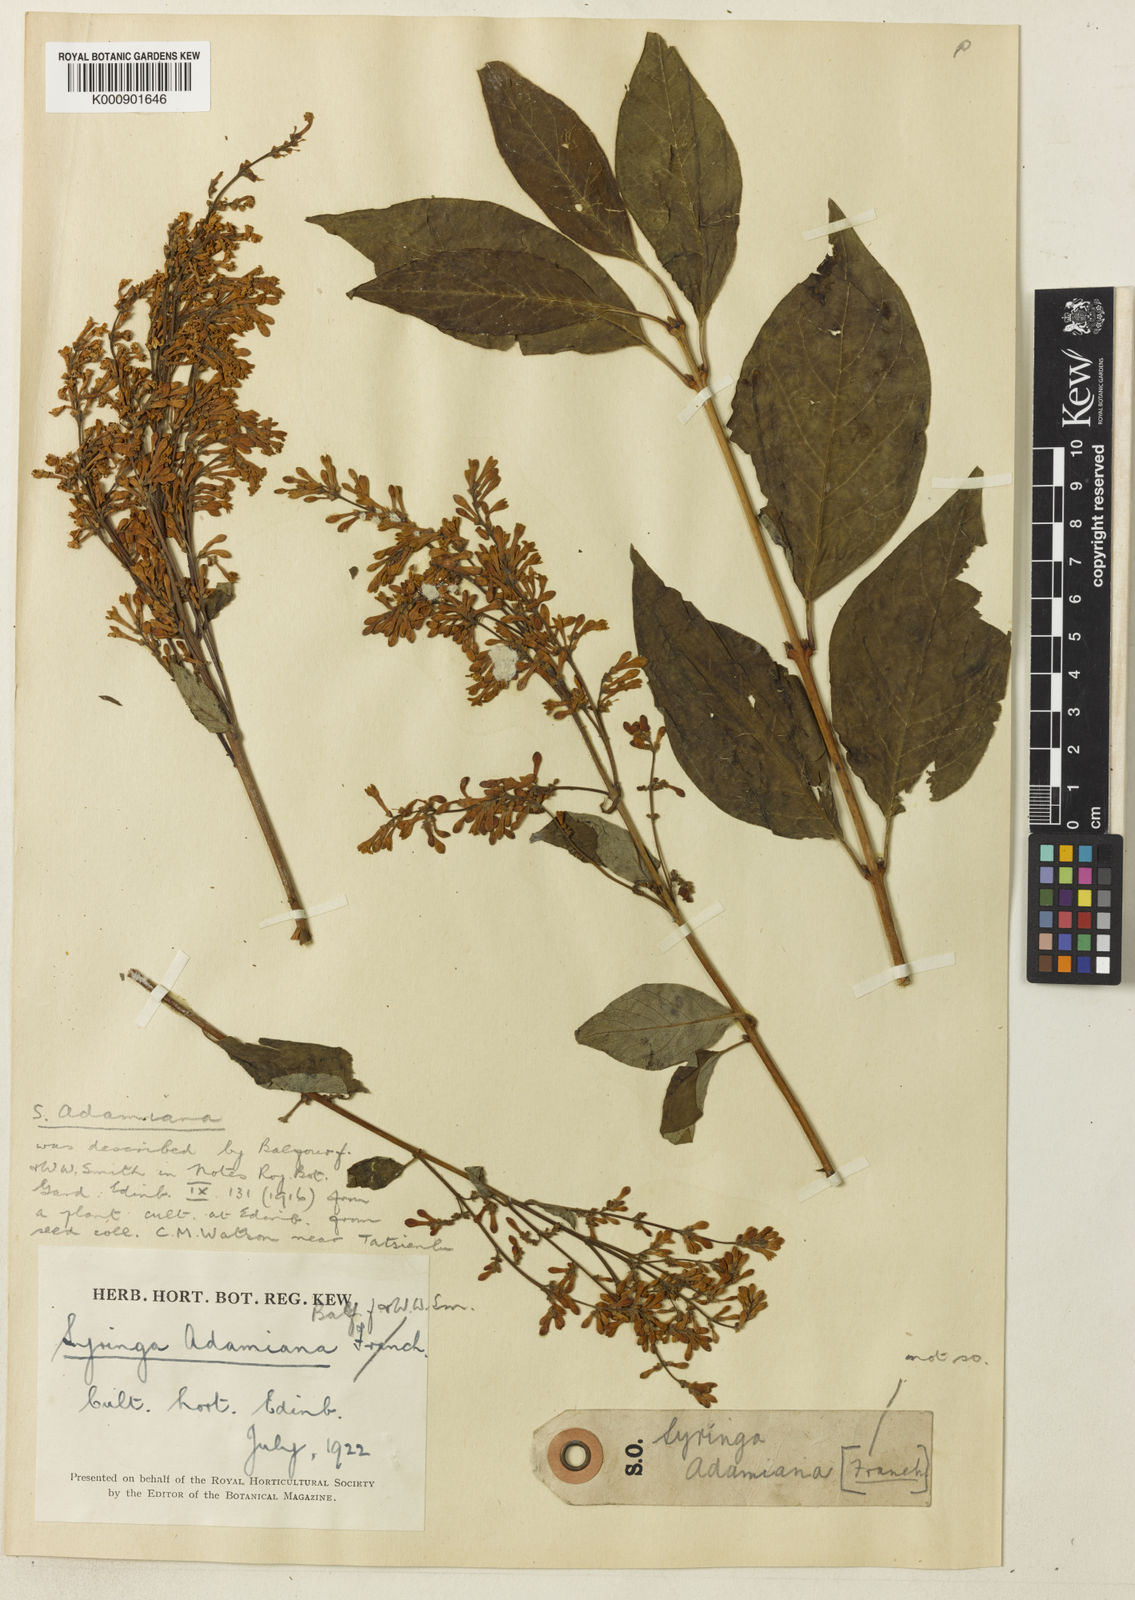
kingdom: Plantae
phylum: Tracheophyta
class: Magnoliopsida
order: Lamiales
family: Oleaceae
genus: Syringa
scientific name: Syringa tomentella
